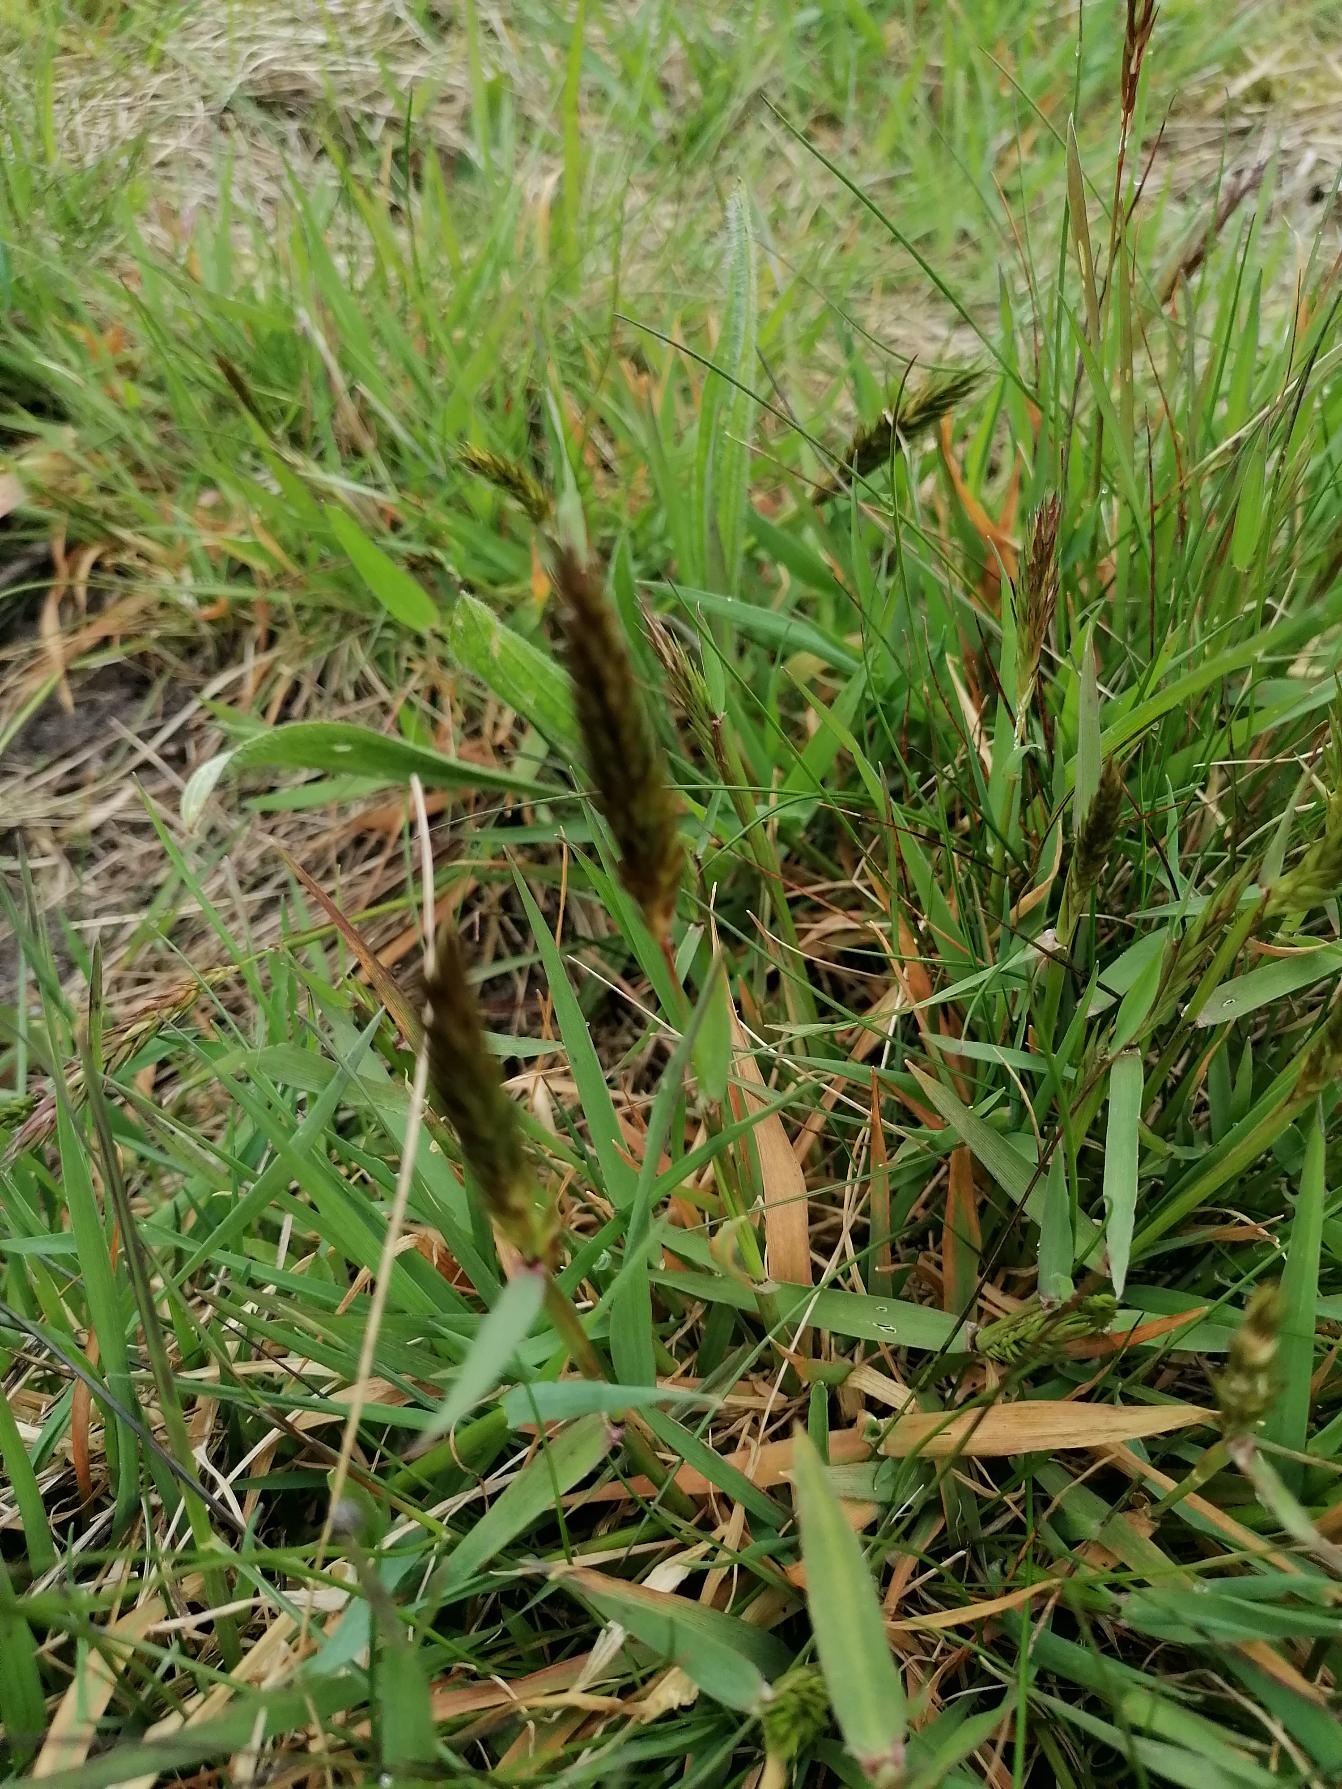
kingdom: Plantae
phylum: Tracheophyta
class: Liliopsida
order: Poales
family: Poaceae
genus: Anthoxanthum
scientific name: Anthoxanthum odoratum
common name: Vellugtende gulaks
